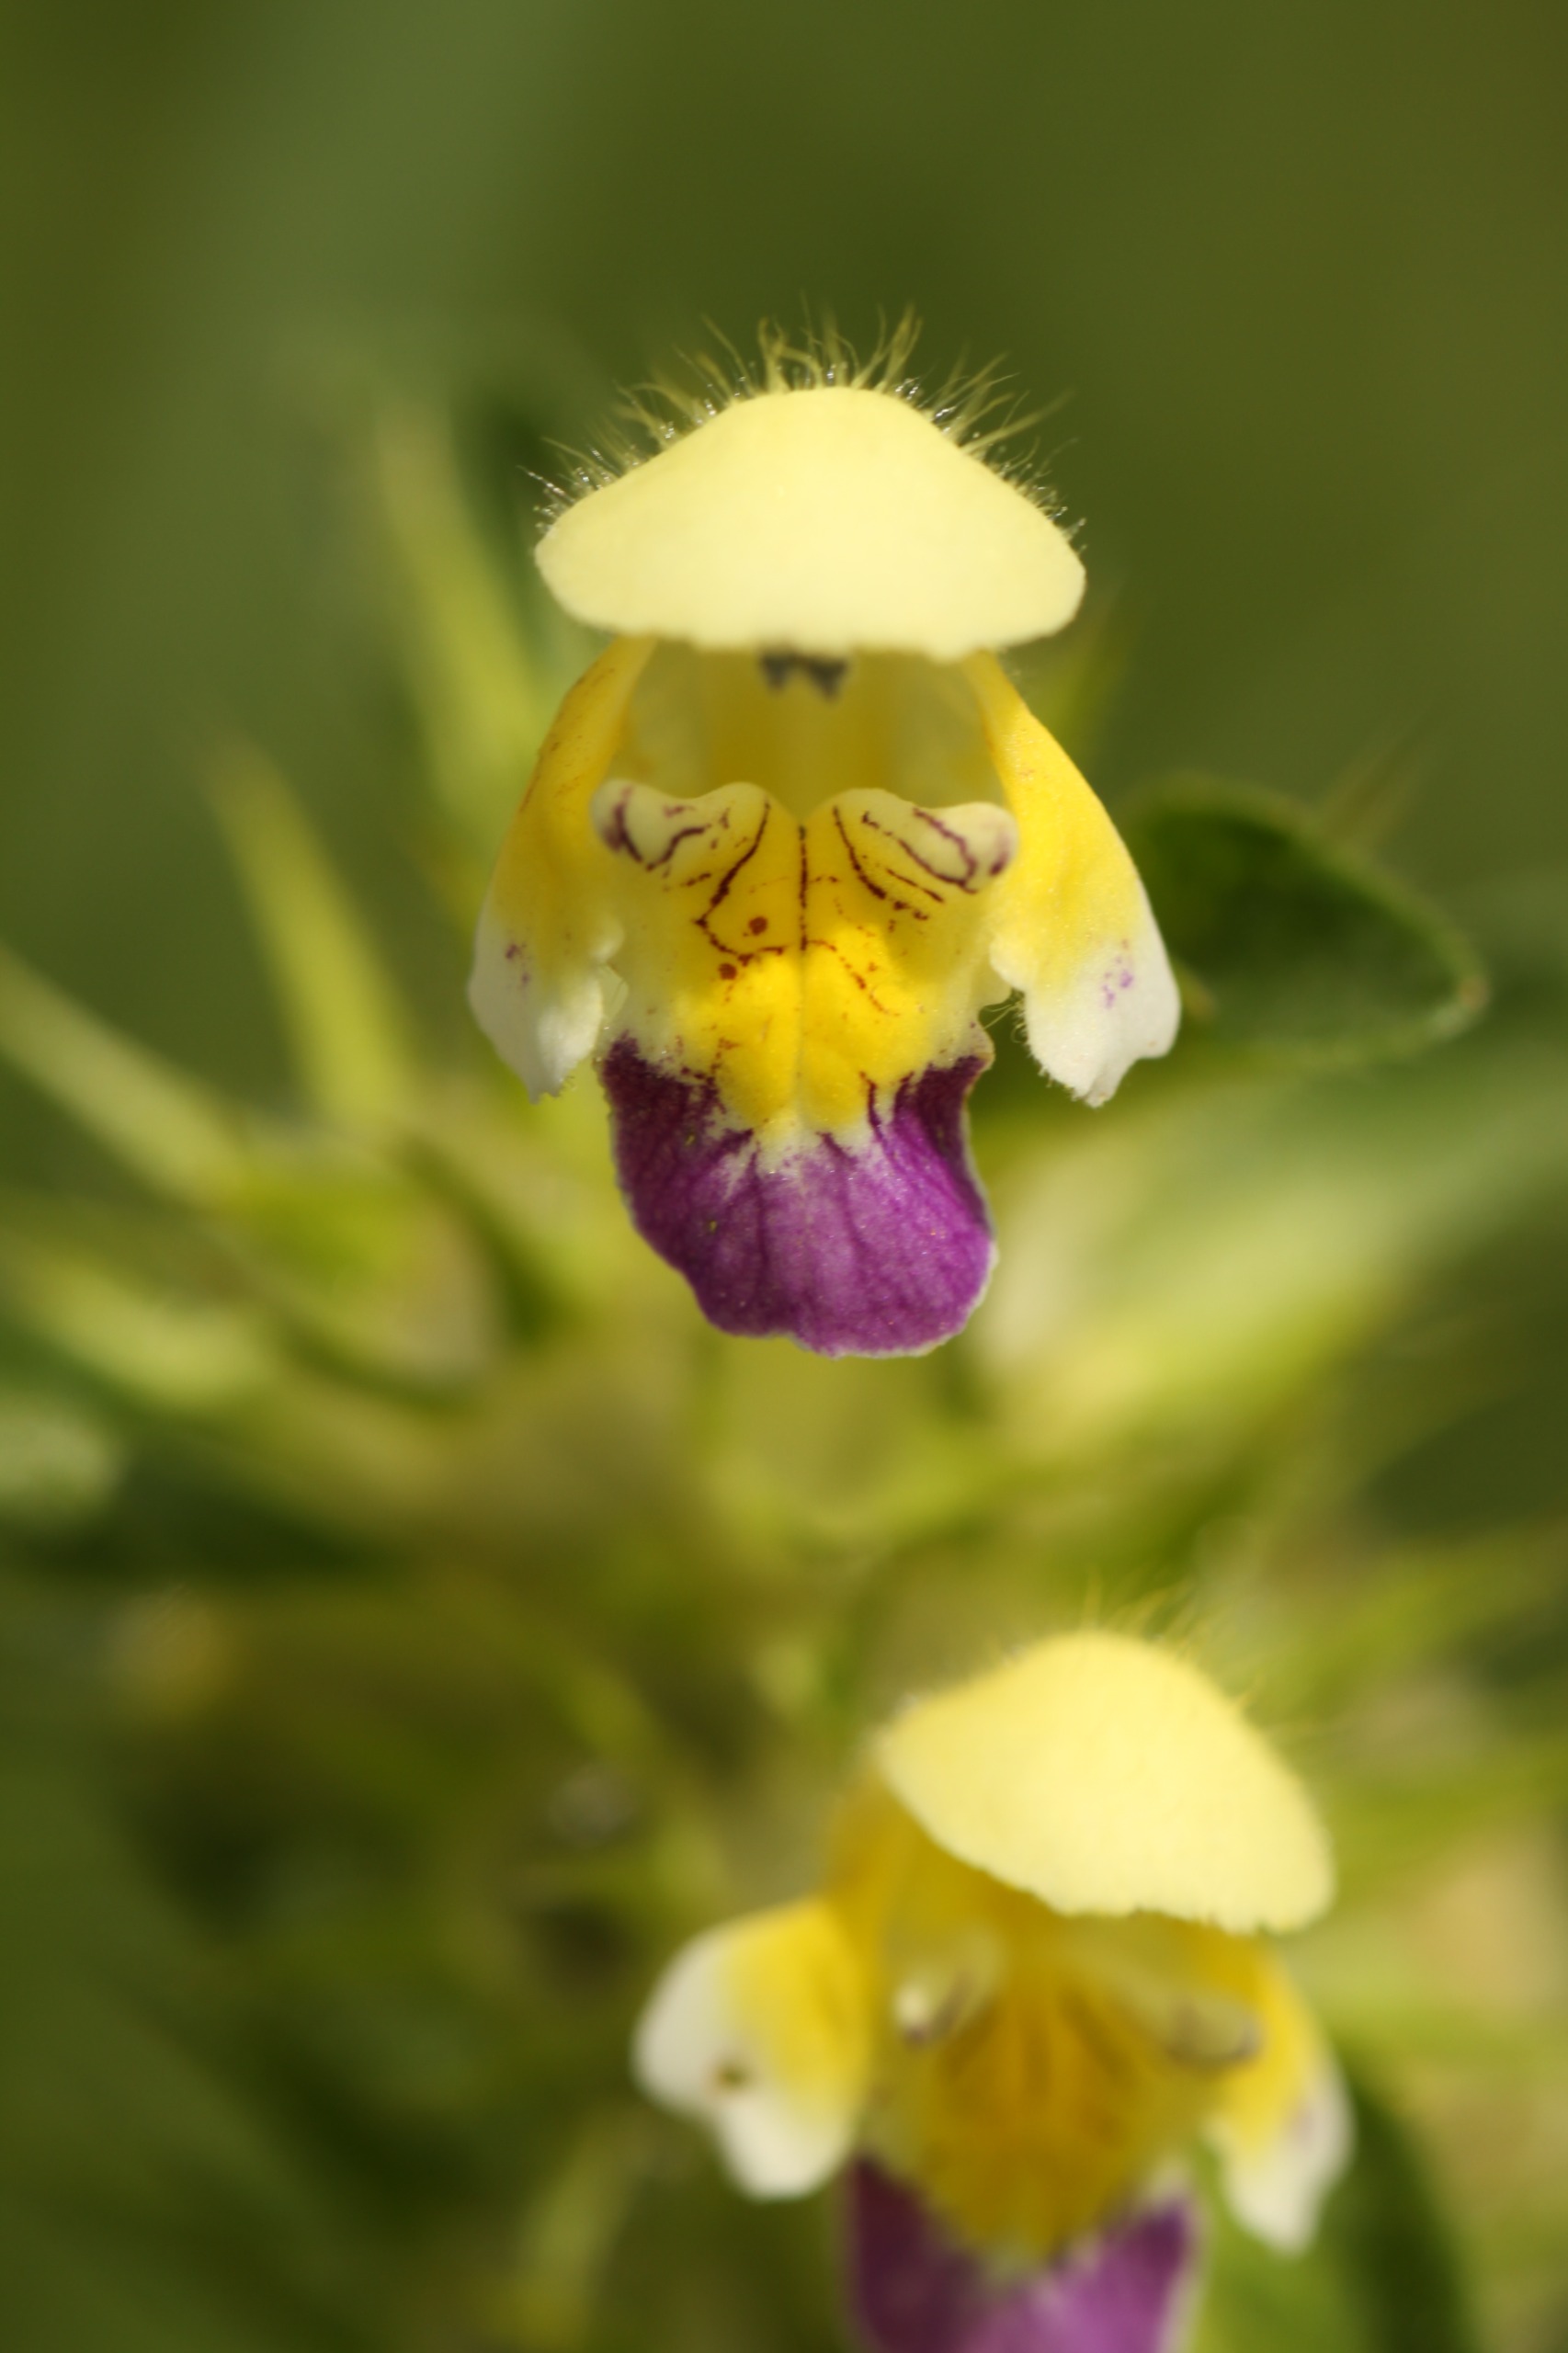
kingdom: Plantae
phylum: Tracheophyta
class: Magnoliopsida
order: Lamiales
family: Lamiaceae
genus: Galeopsis
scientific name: Galeopsis speciosa
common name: Hamp-hanekro
